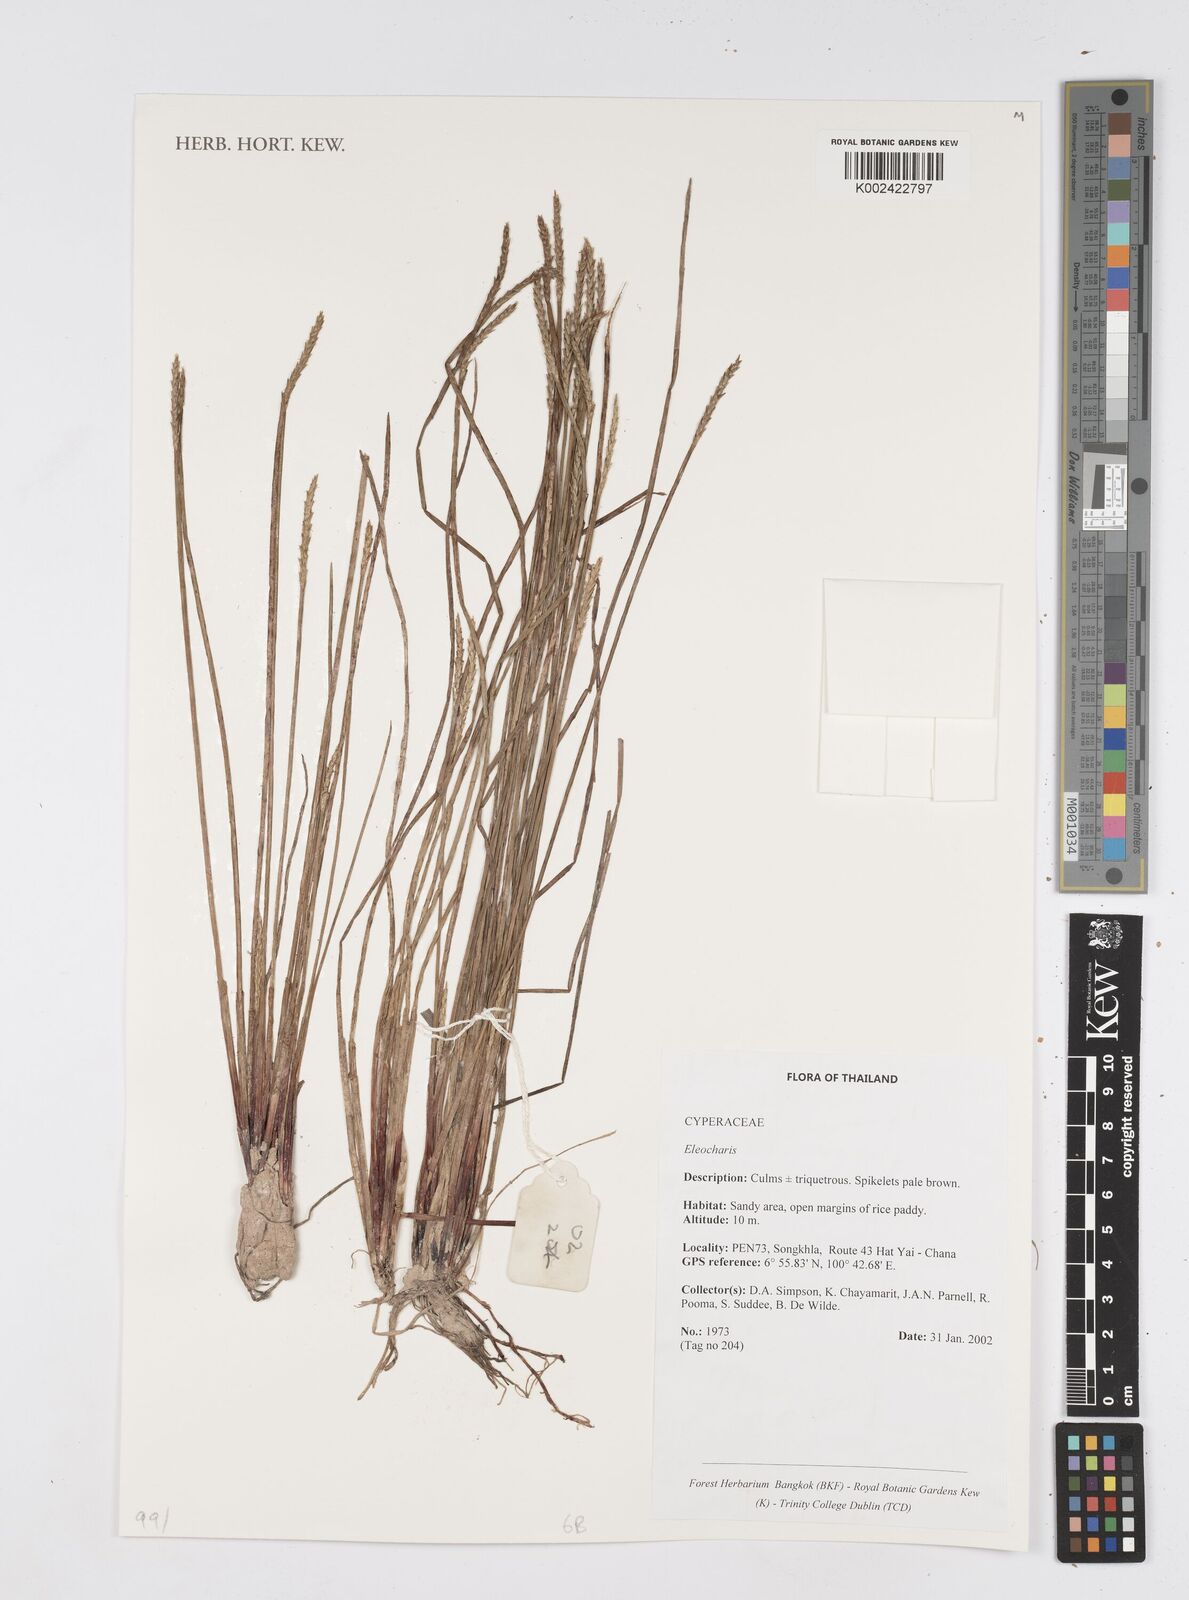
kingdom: Plantae
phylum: Tracheophyta
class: Liliopsida
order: Poales
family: Cyperaceae
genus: Eleocharis
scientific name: Eleocharis
